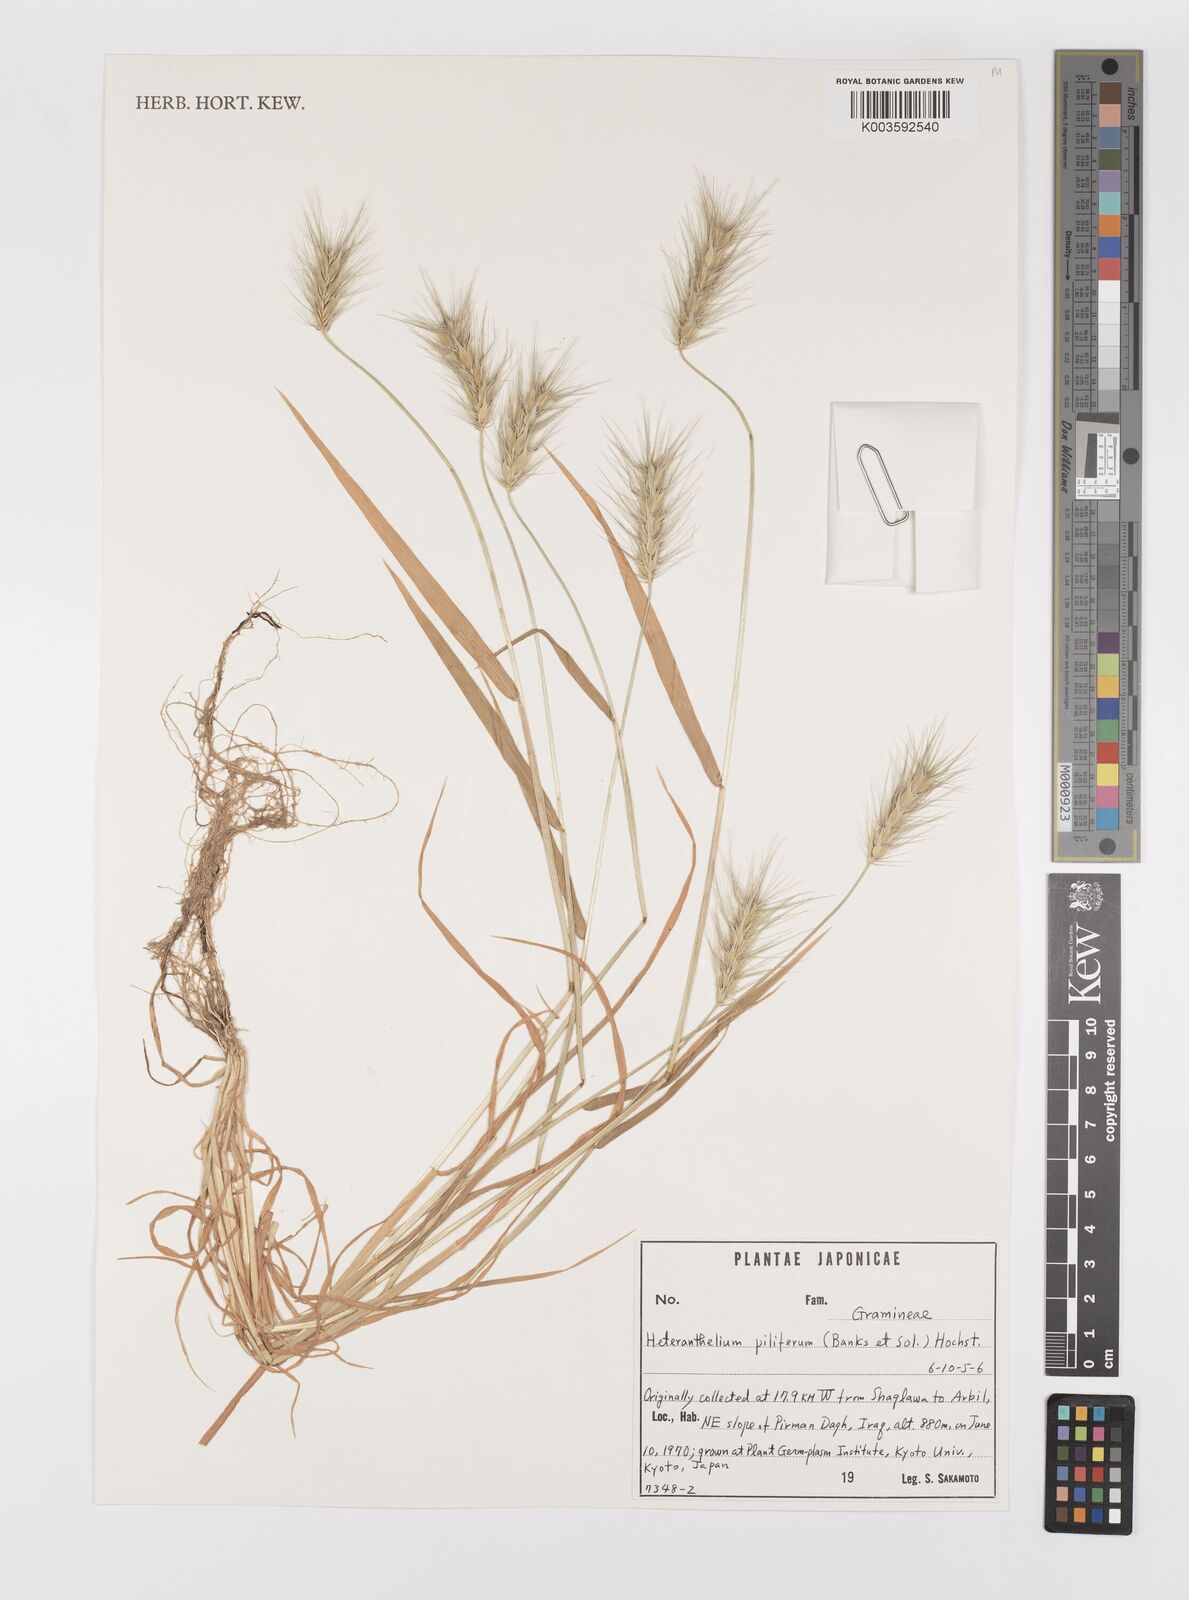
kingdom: Plantae
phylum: Tracheophyta
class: Liliopsida
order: Poales
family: Poaceae
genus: Heteranthelium
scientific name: Heteranthelium piliferum
